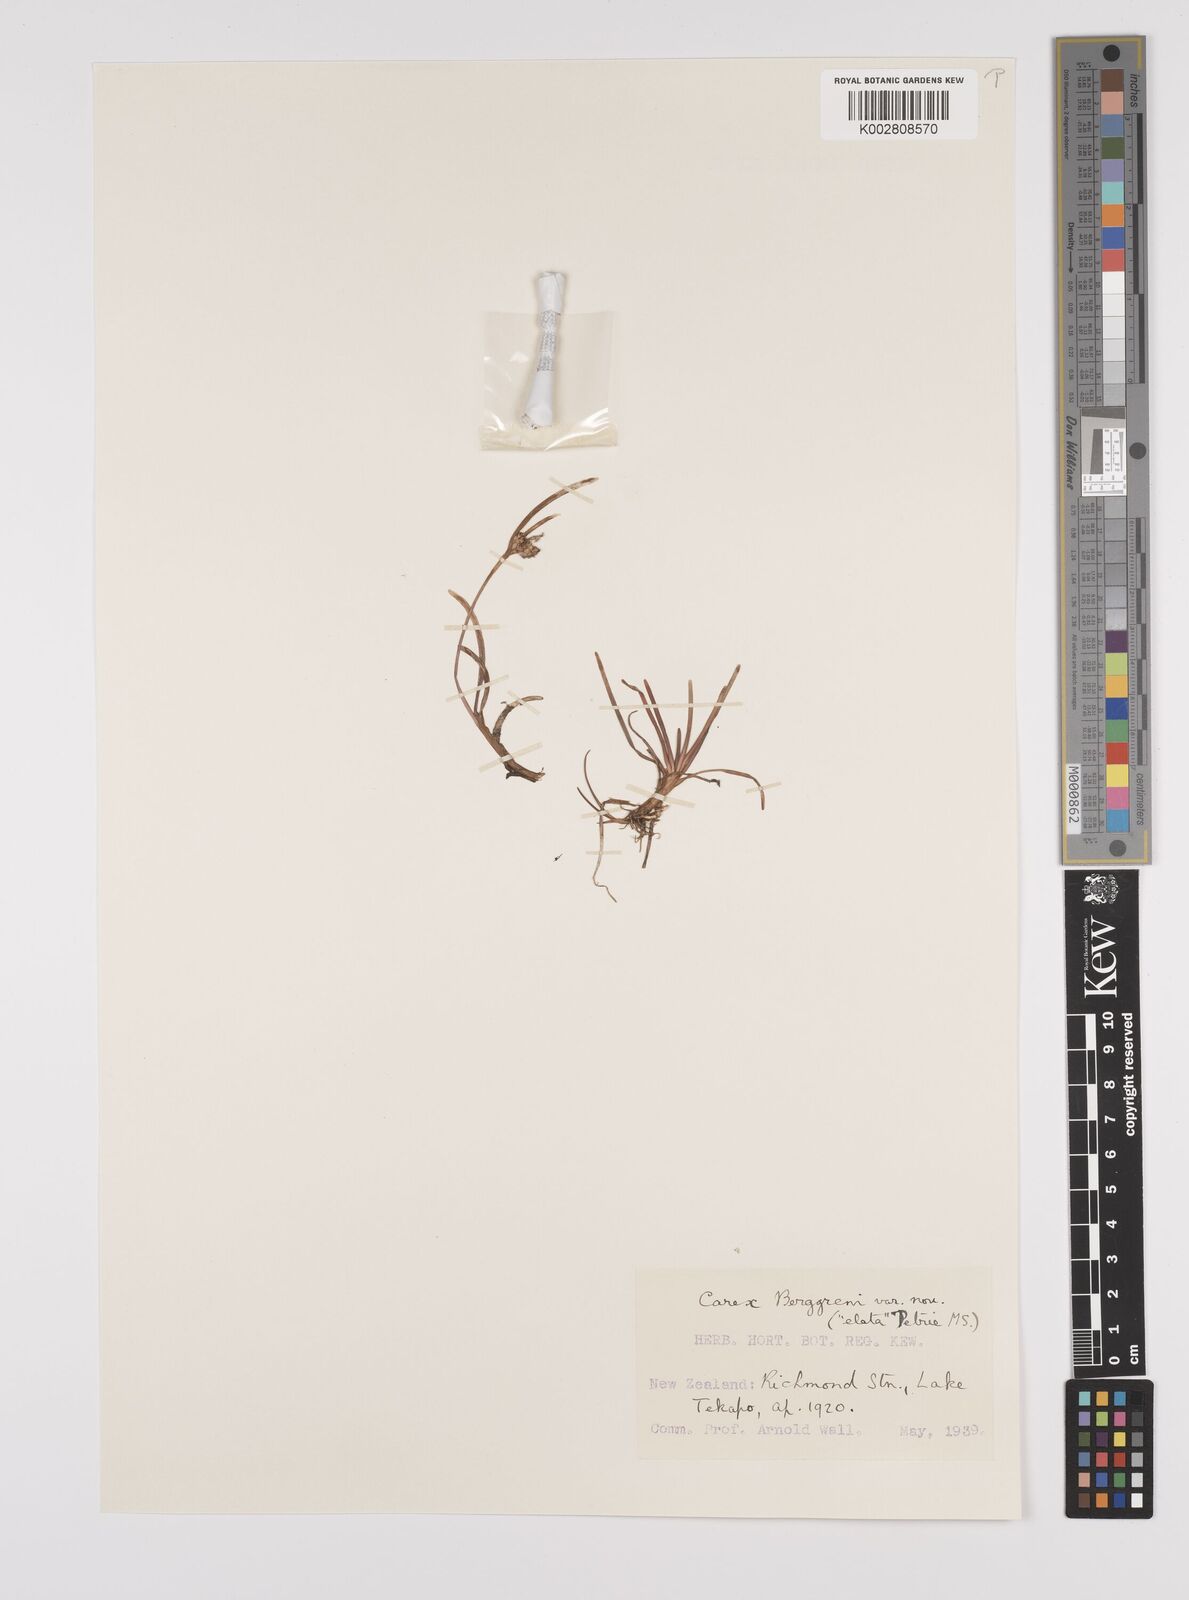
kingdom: Plantae
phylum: Tracheophyta
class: Liliopsida
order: Poales
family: Cyperaceae
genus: Carex
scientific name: Carex talbotii
